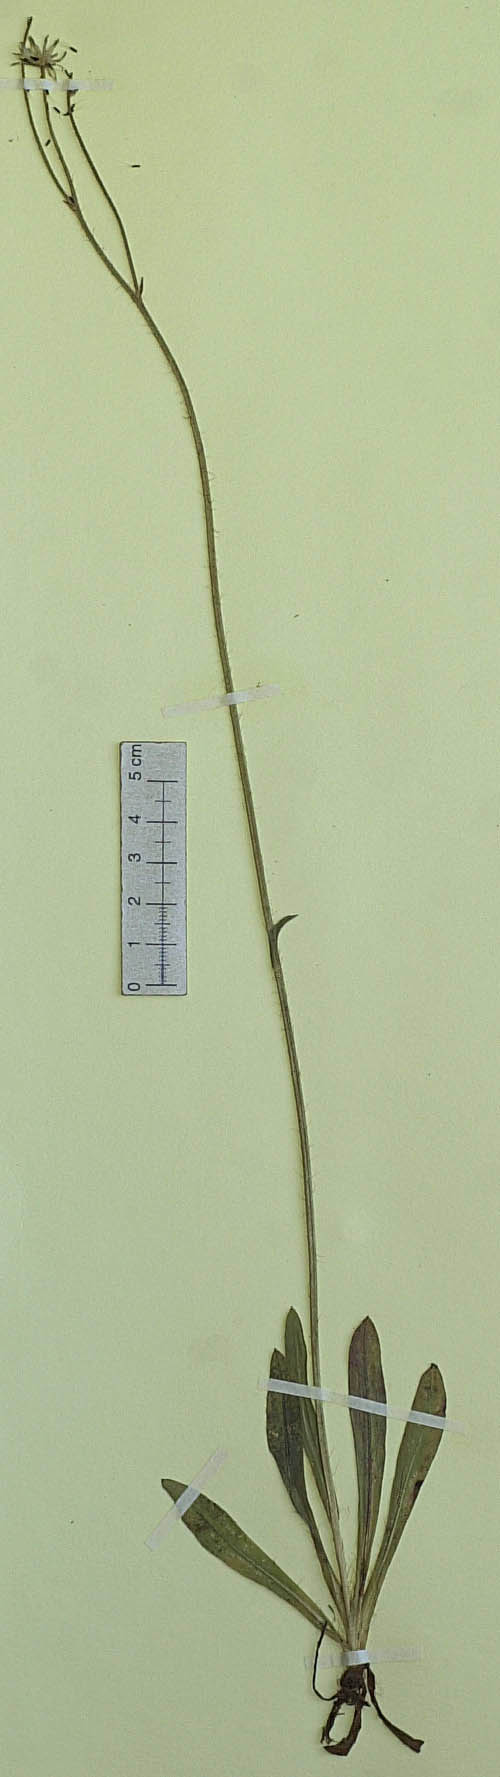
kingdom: Plantae
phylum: Tracheophyta
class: Magnoliopsida
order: Asterales
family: Asteraceae
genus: Pilosella
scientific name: Pilosella chomatophila
